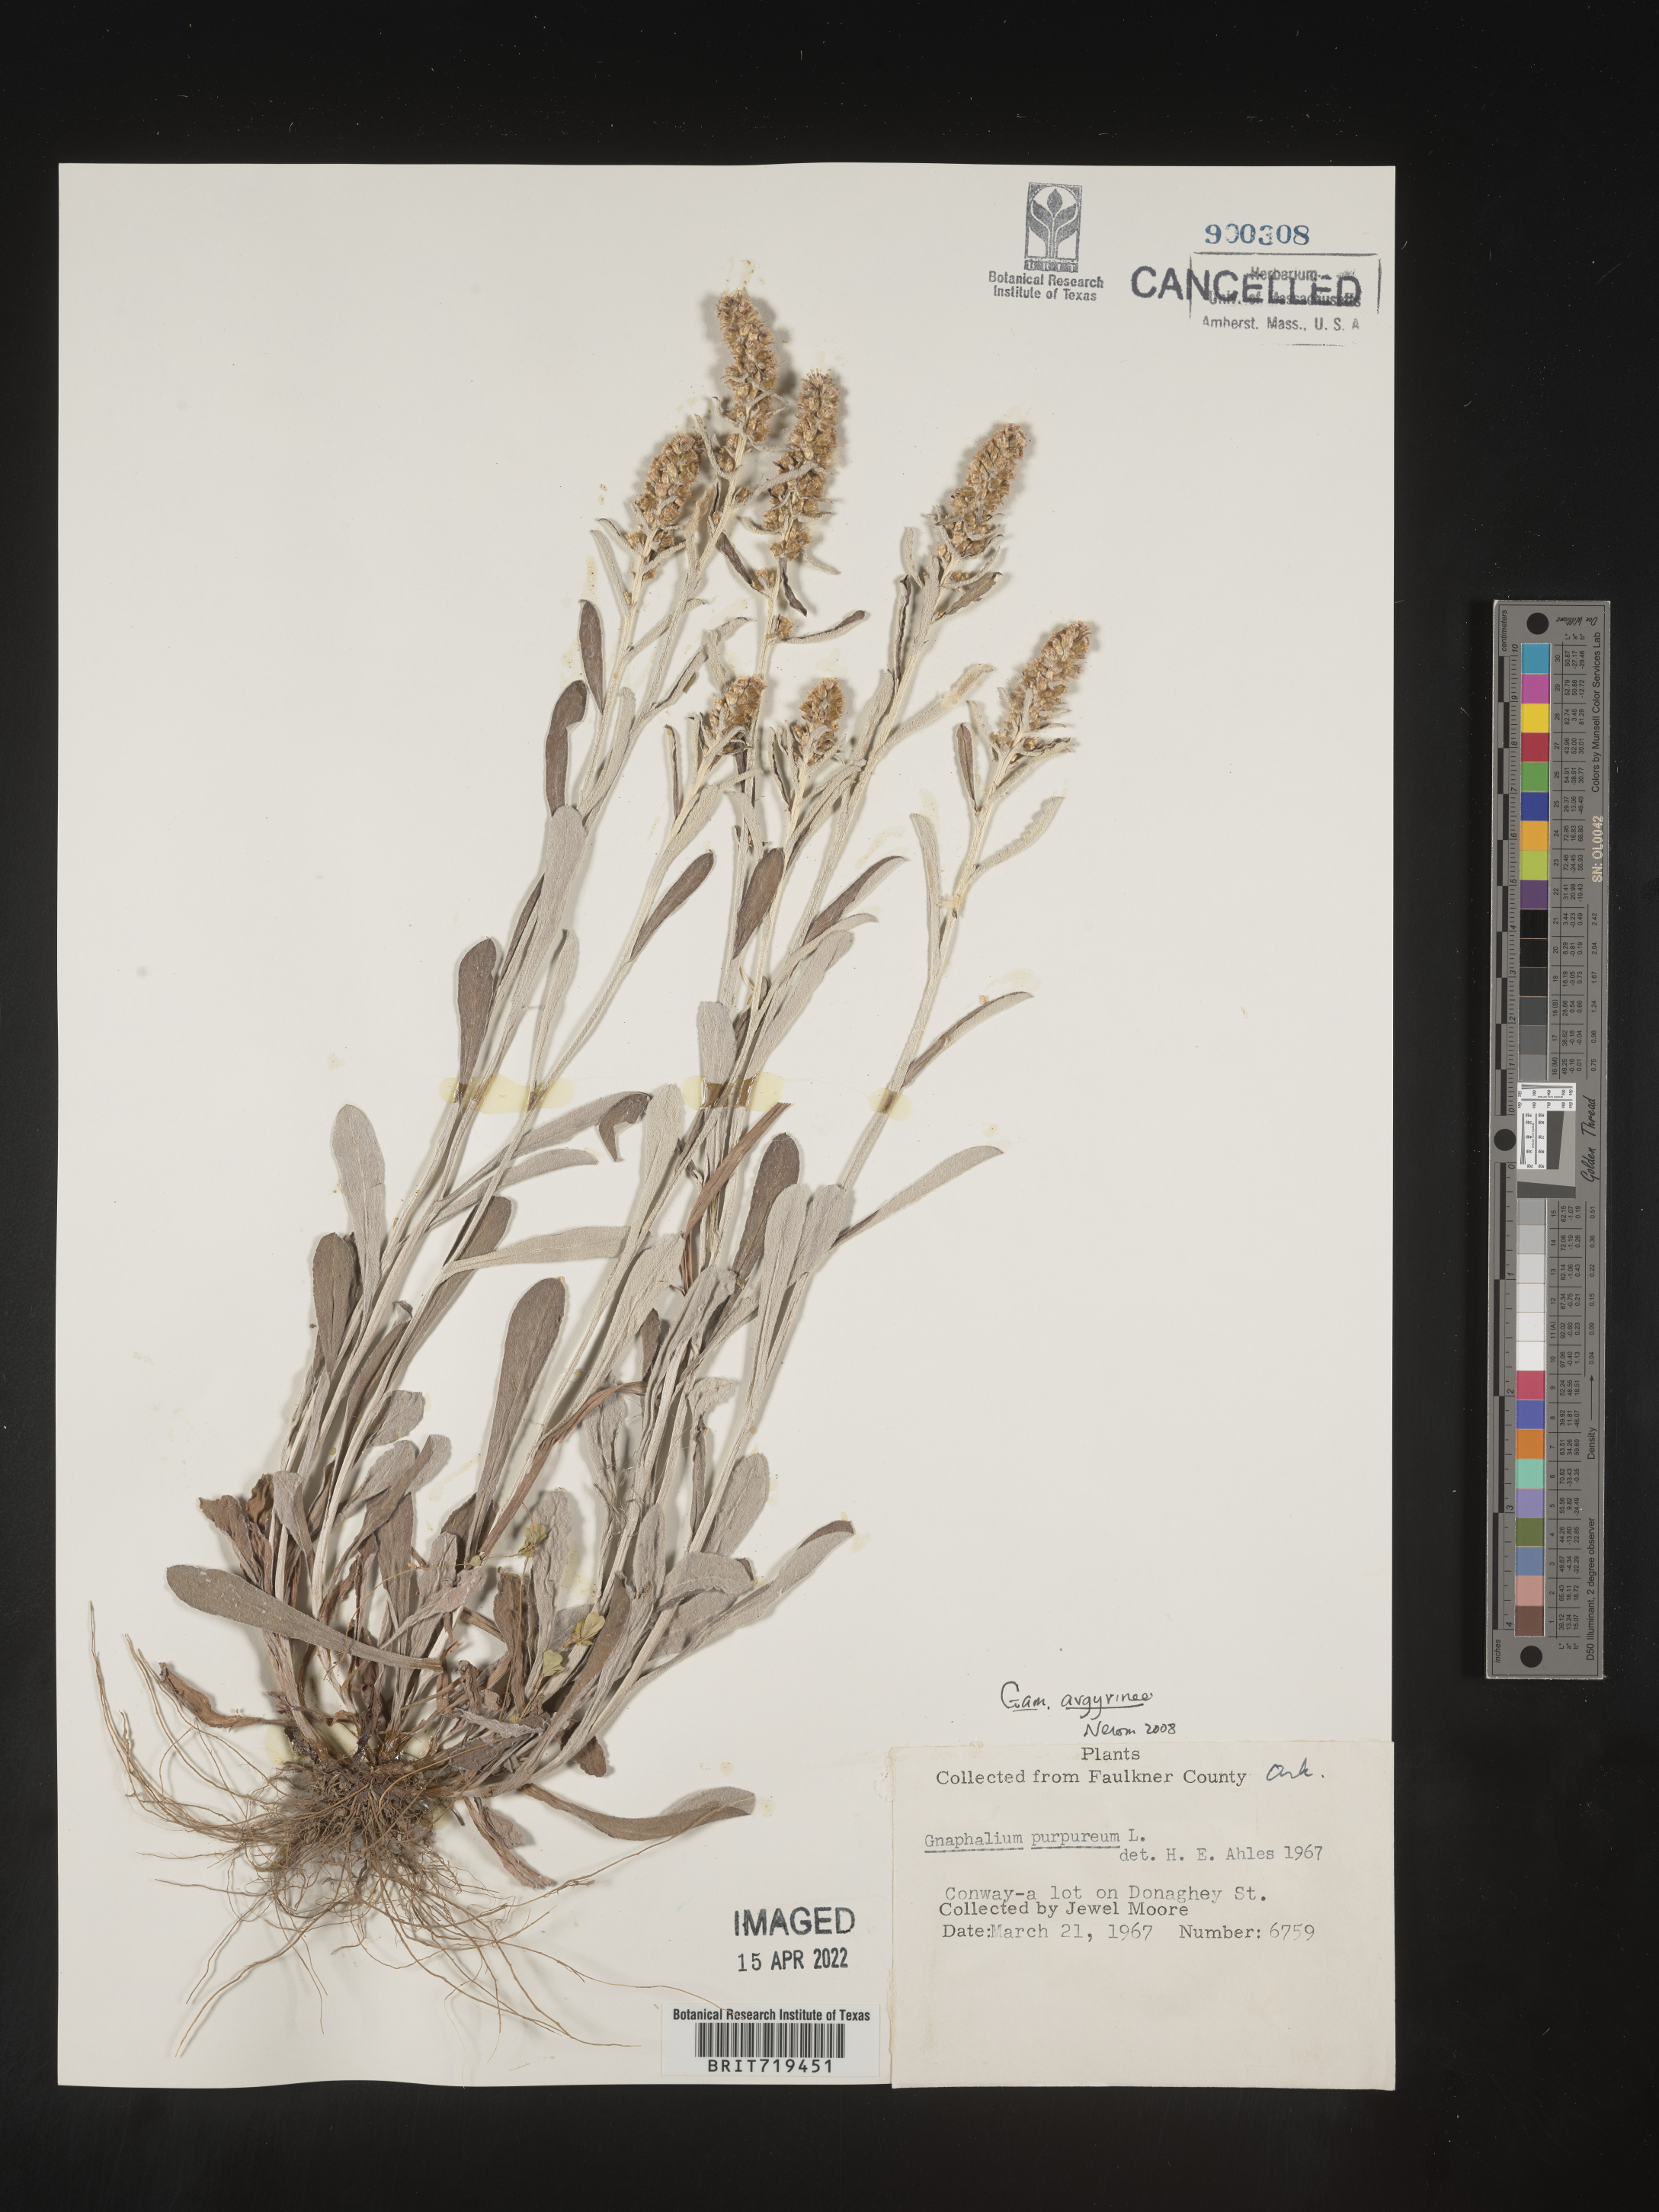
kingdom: Plantae
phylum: Tracheophyta
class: Magnoliopsida
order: Asterales
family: Asteraceae
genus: Gamochaeta
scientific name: Gamochaeta argyrinea
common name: Silvery cudweed
